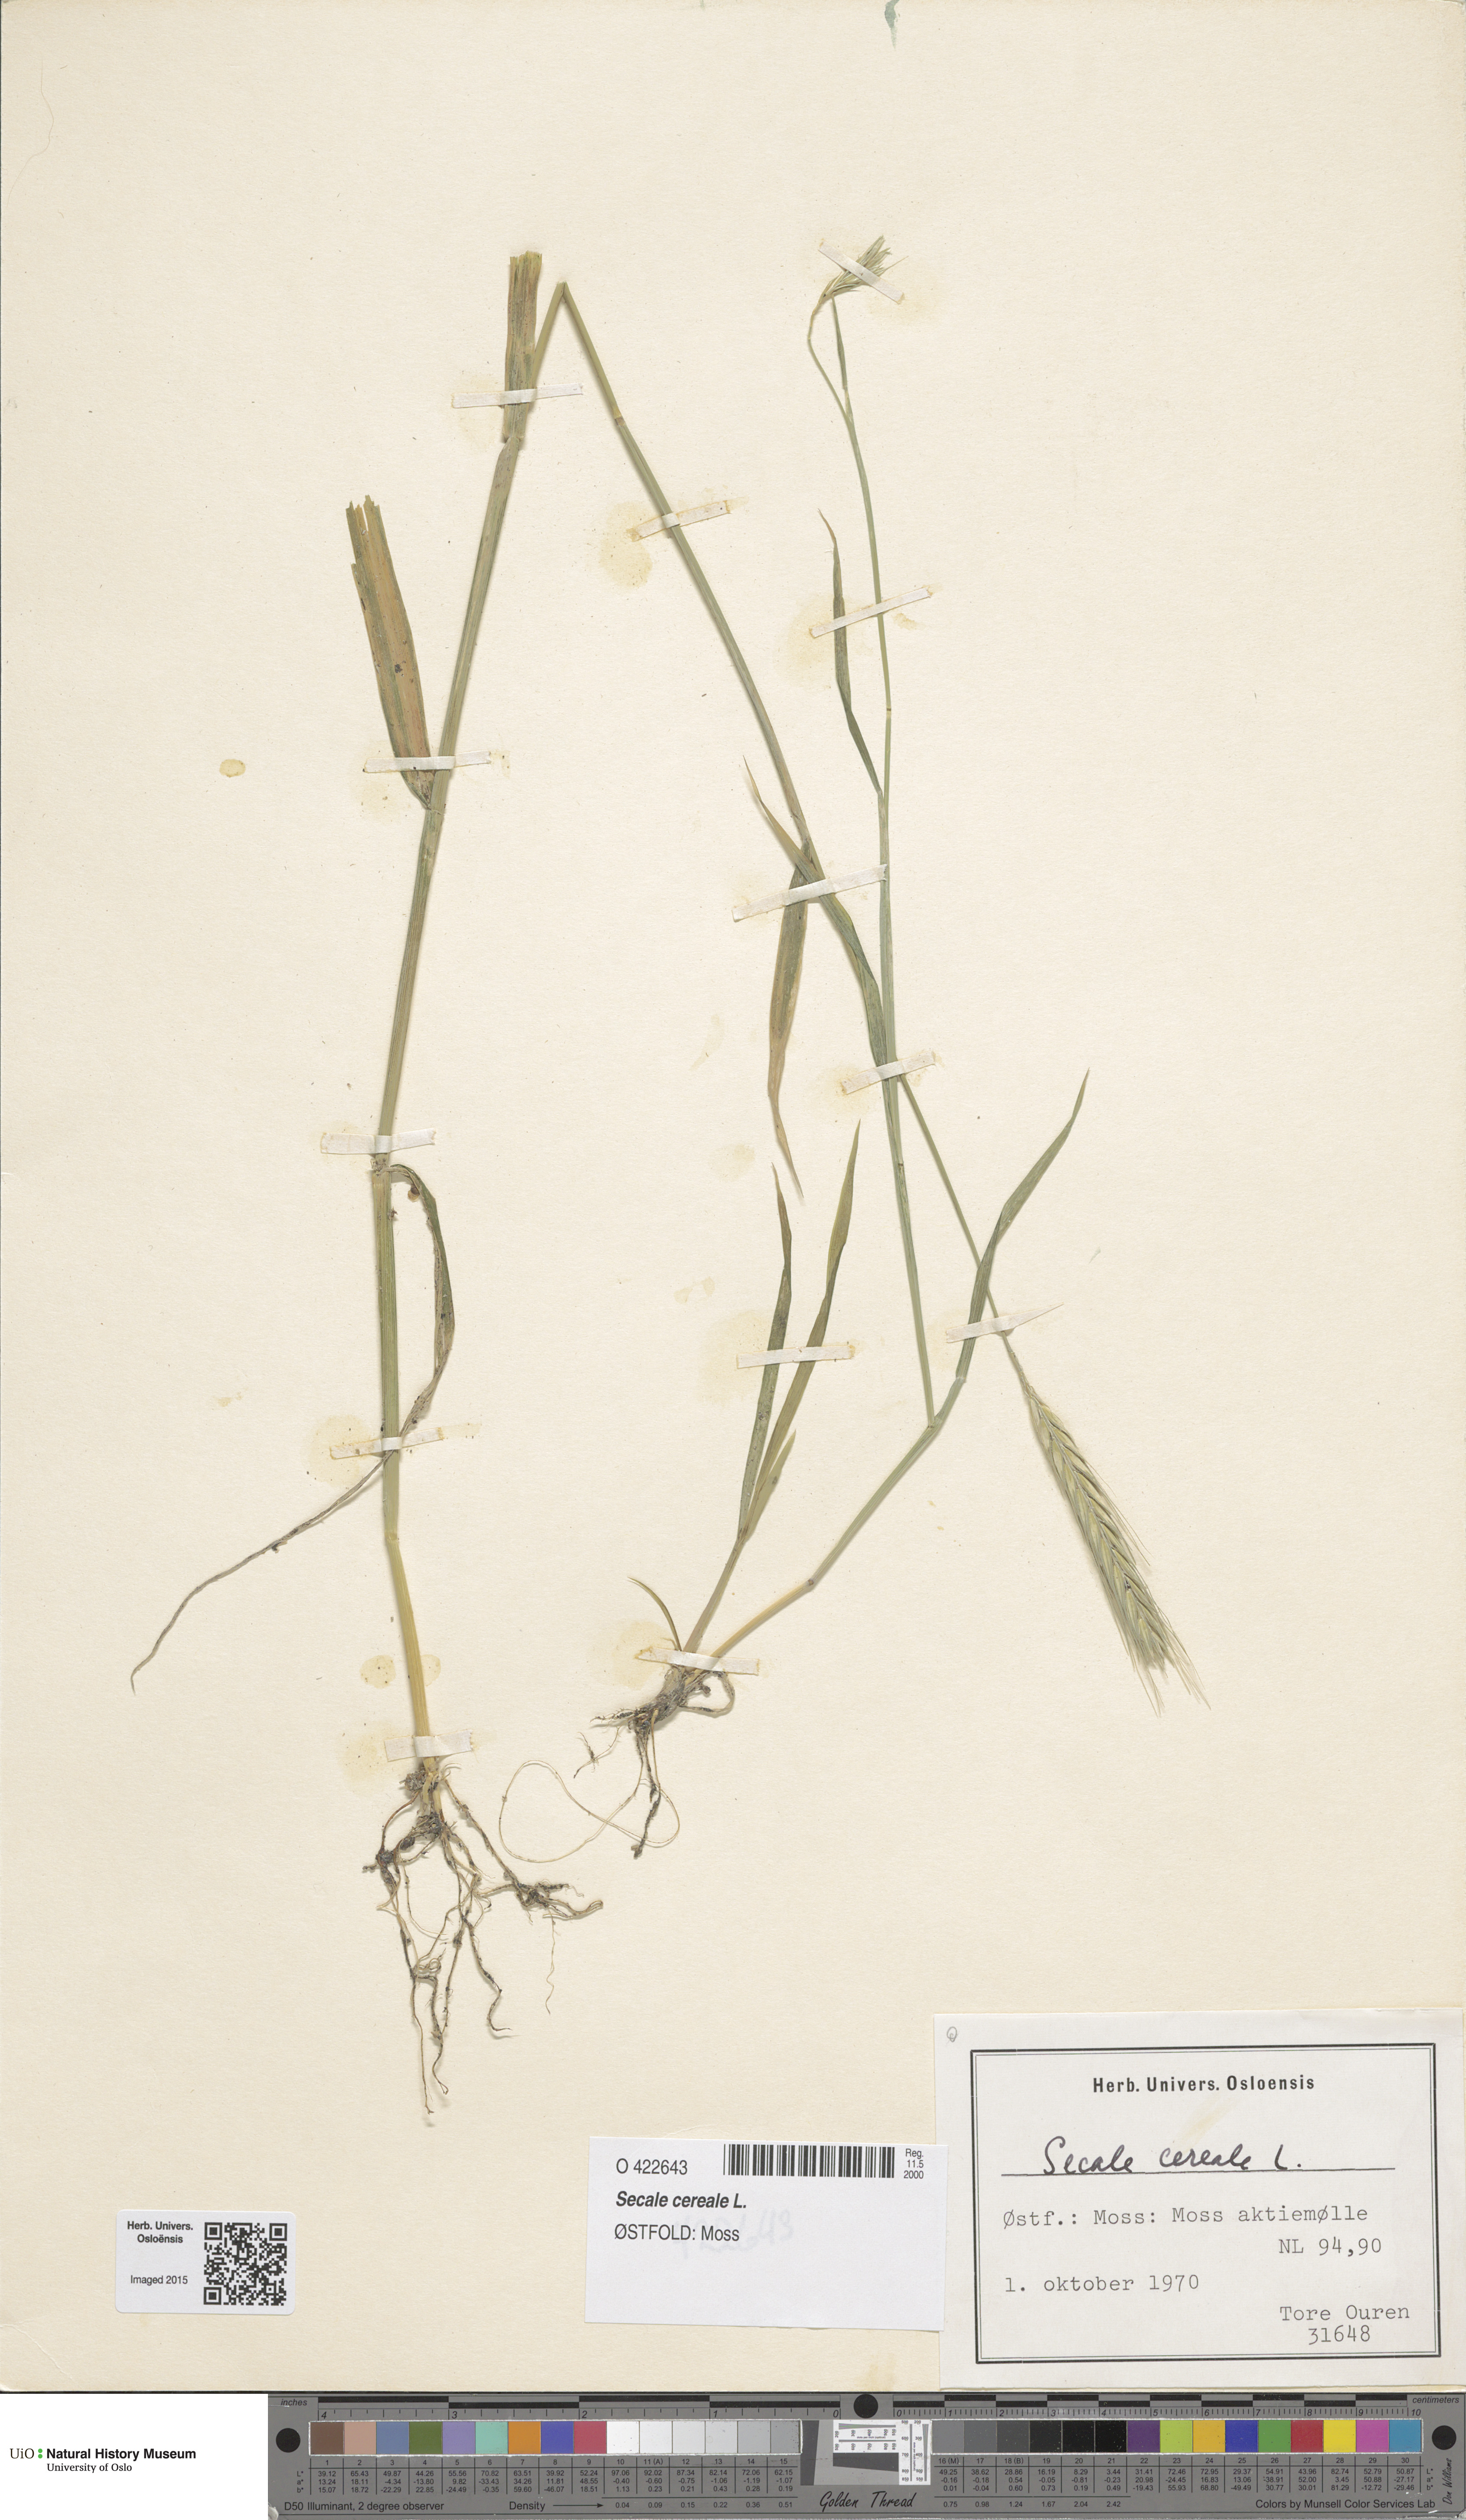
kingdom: Plantae
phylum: Tracheophyta
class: Liliopsida
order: Poales
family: Poaceae
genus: Secale
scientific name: Secale cereale
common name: Rye
